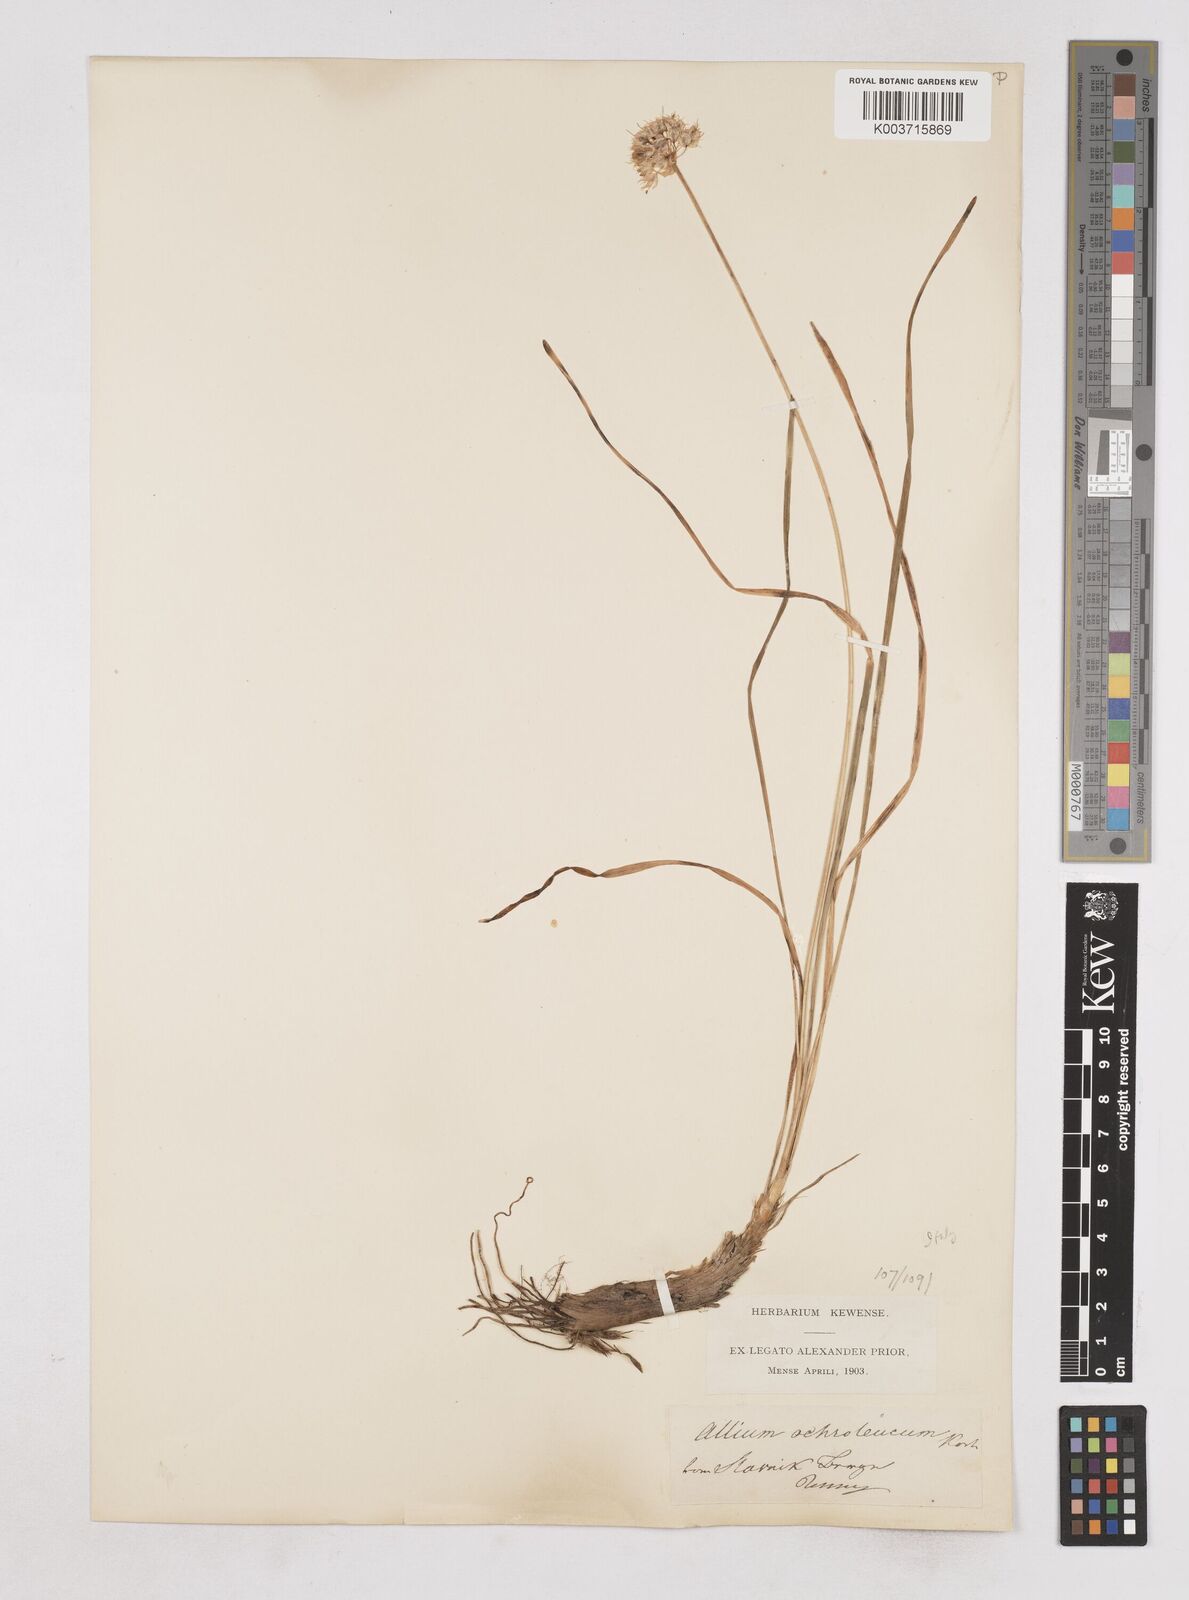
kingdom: Plantae
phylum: Tracheophyta
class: Liliopsida
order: Asparagales
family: Amaryllidaceae
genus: Allium
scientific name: Allium ericetorum
